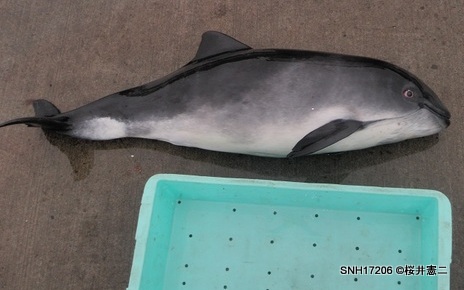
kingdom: Animalia
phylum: Chordata
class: Mammalia
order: Cetacea
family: Phocoenidae
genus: Phocoena
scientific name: Phocoena phocoena
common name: Harbour porpoise
